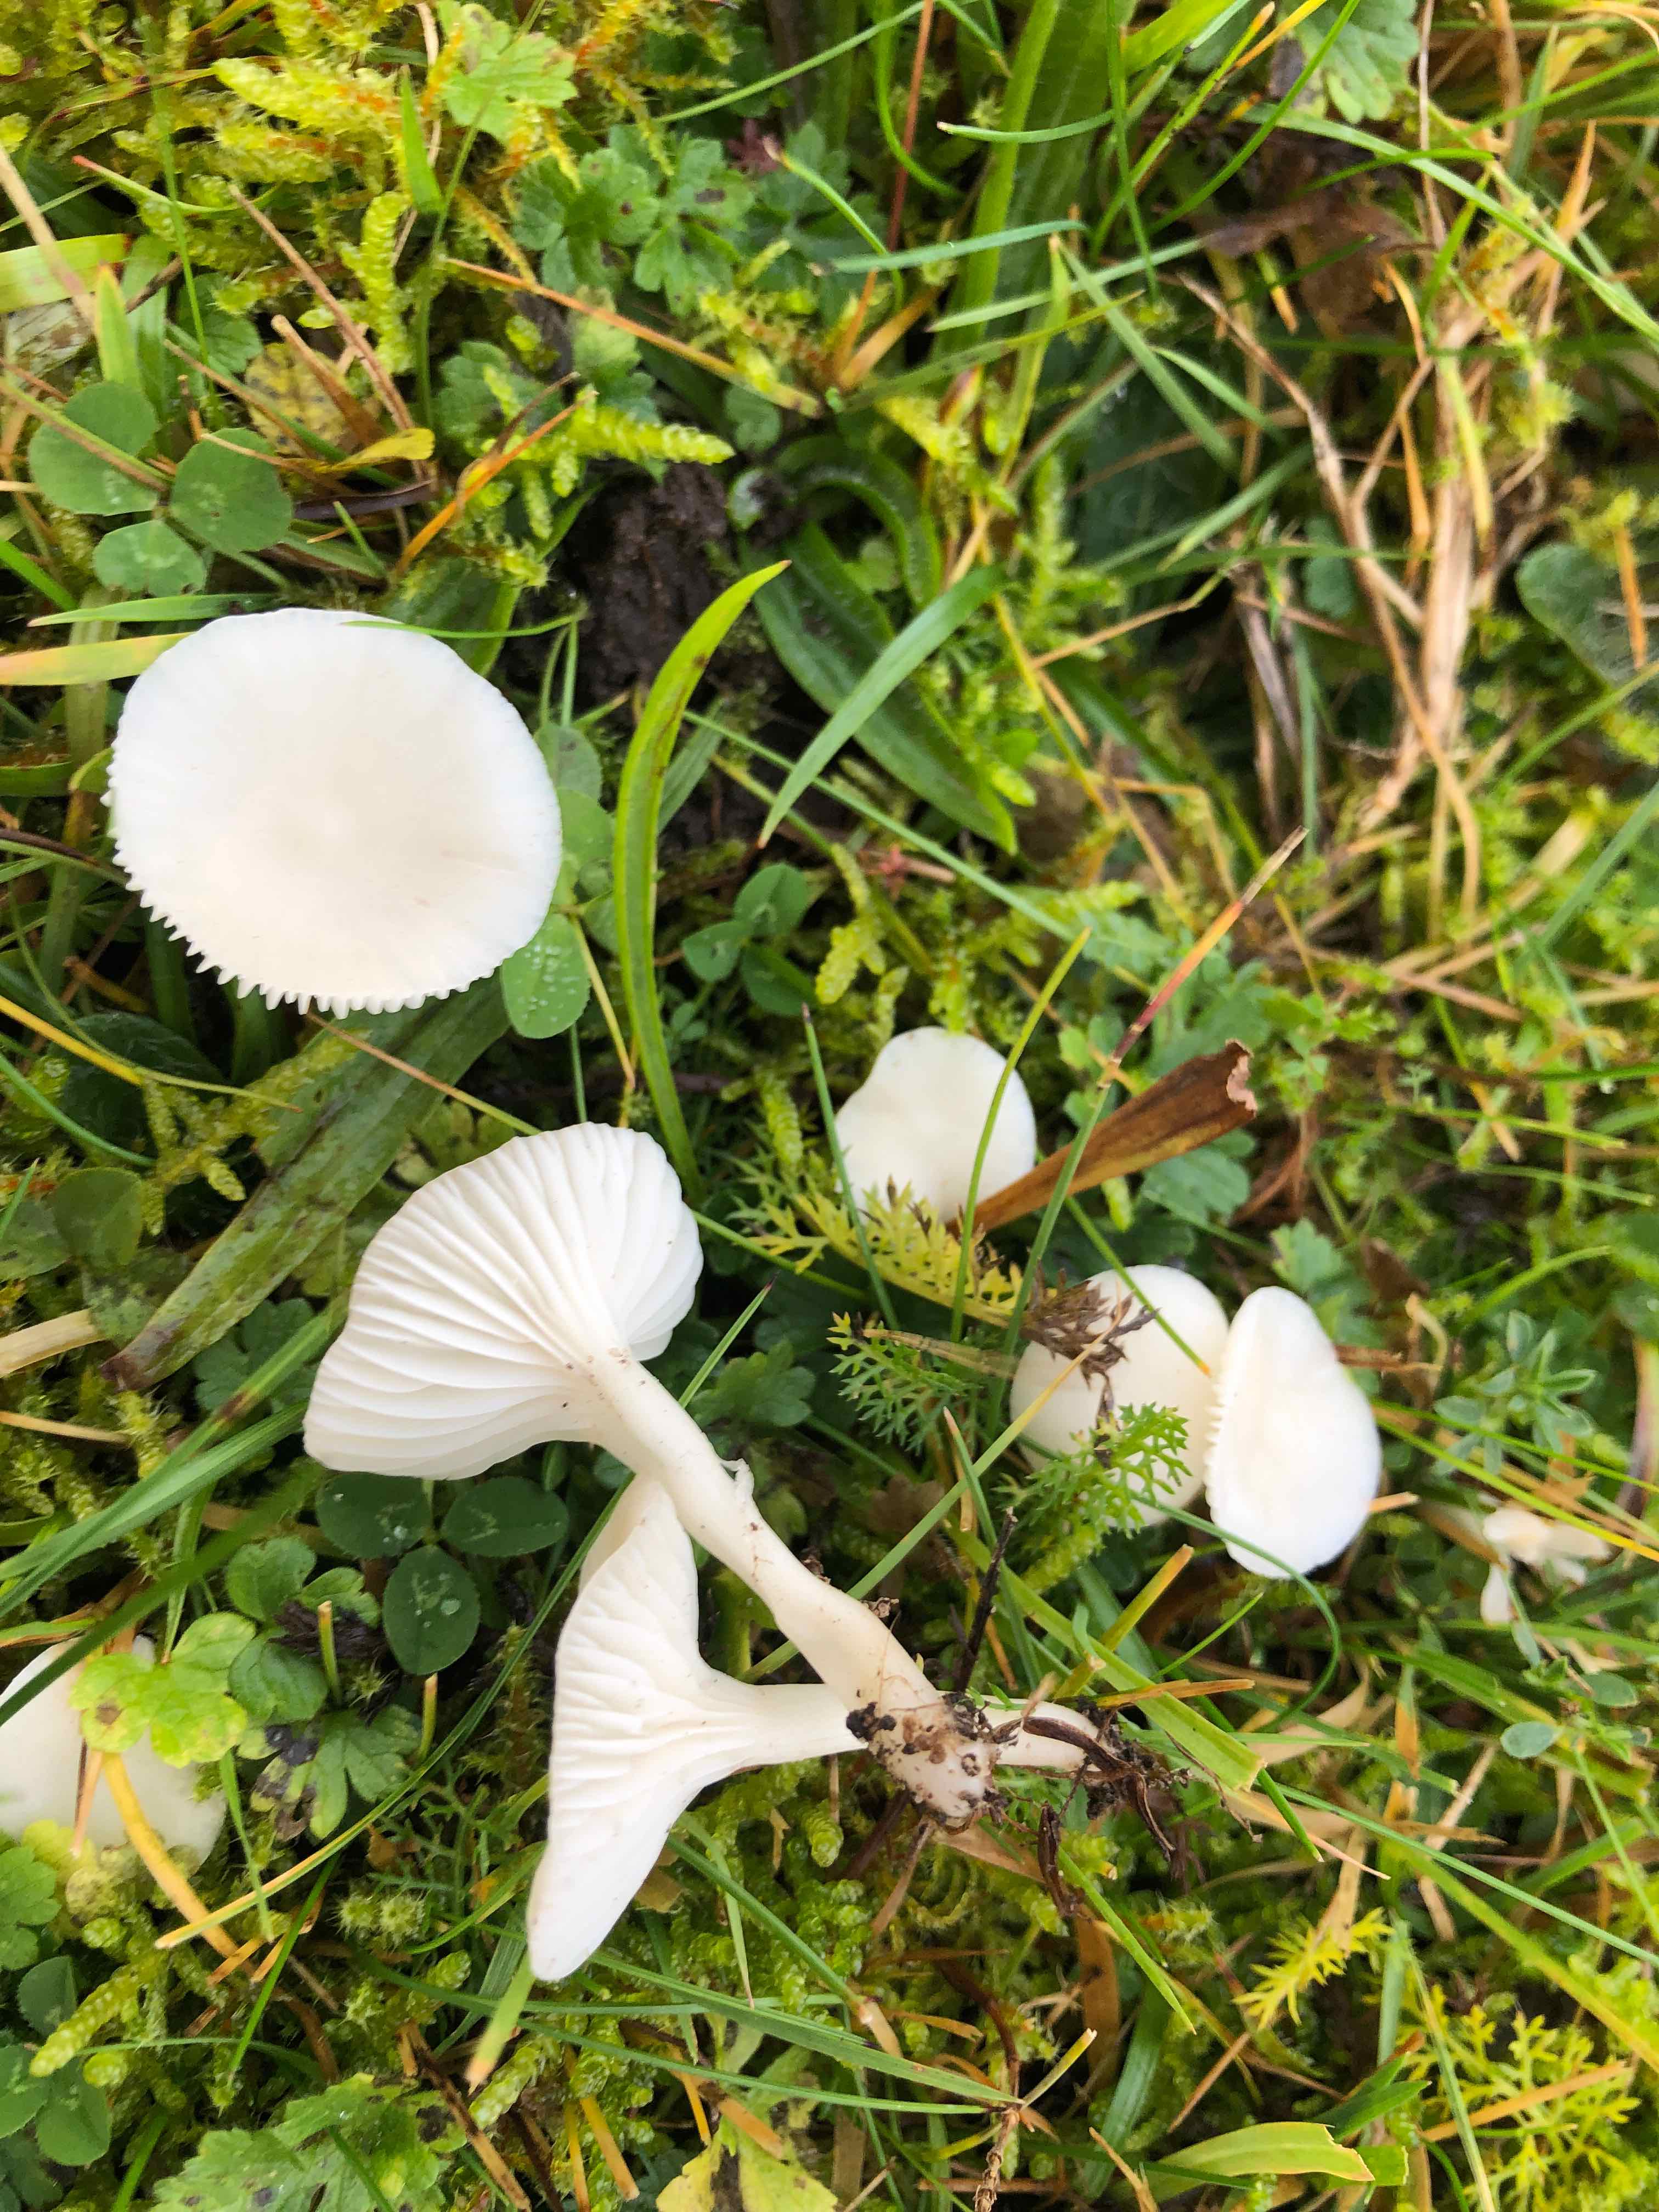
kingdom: Fungi
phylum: Basidiomycota
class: Agaricomycetes
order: Agaricales
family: Hygrophoraceae
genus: Cuphophyllus
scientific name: Cuphophyllus virgineus
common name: snehvid vokshat
